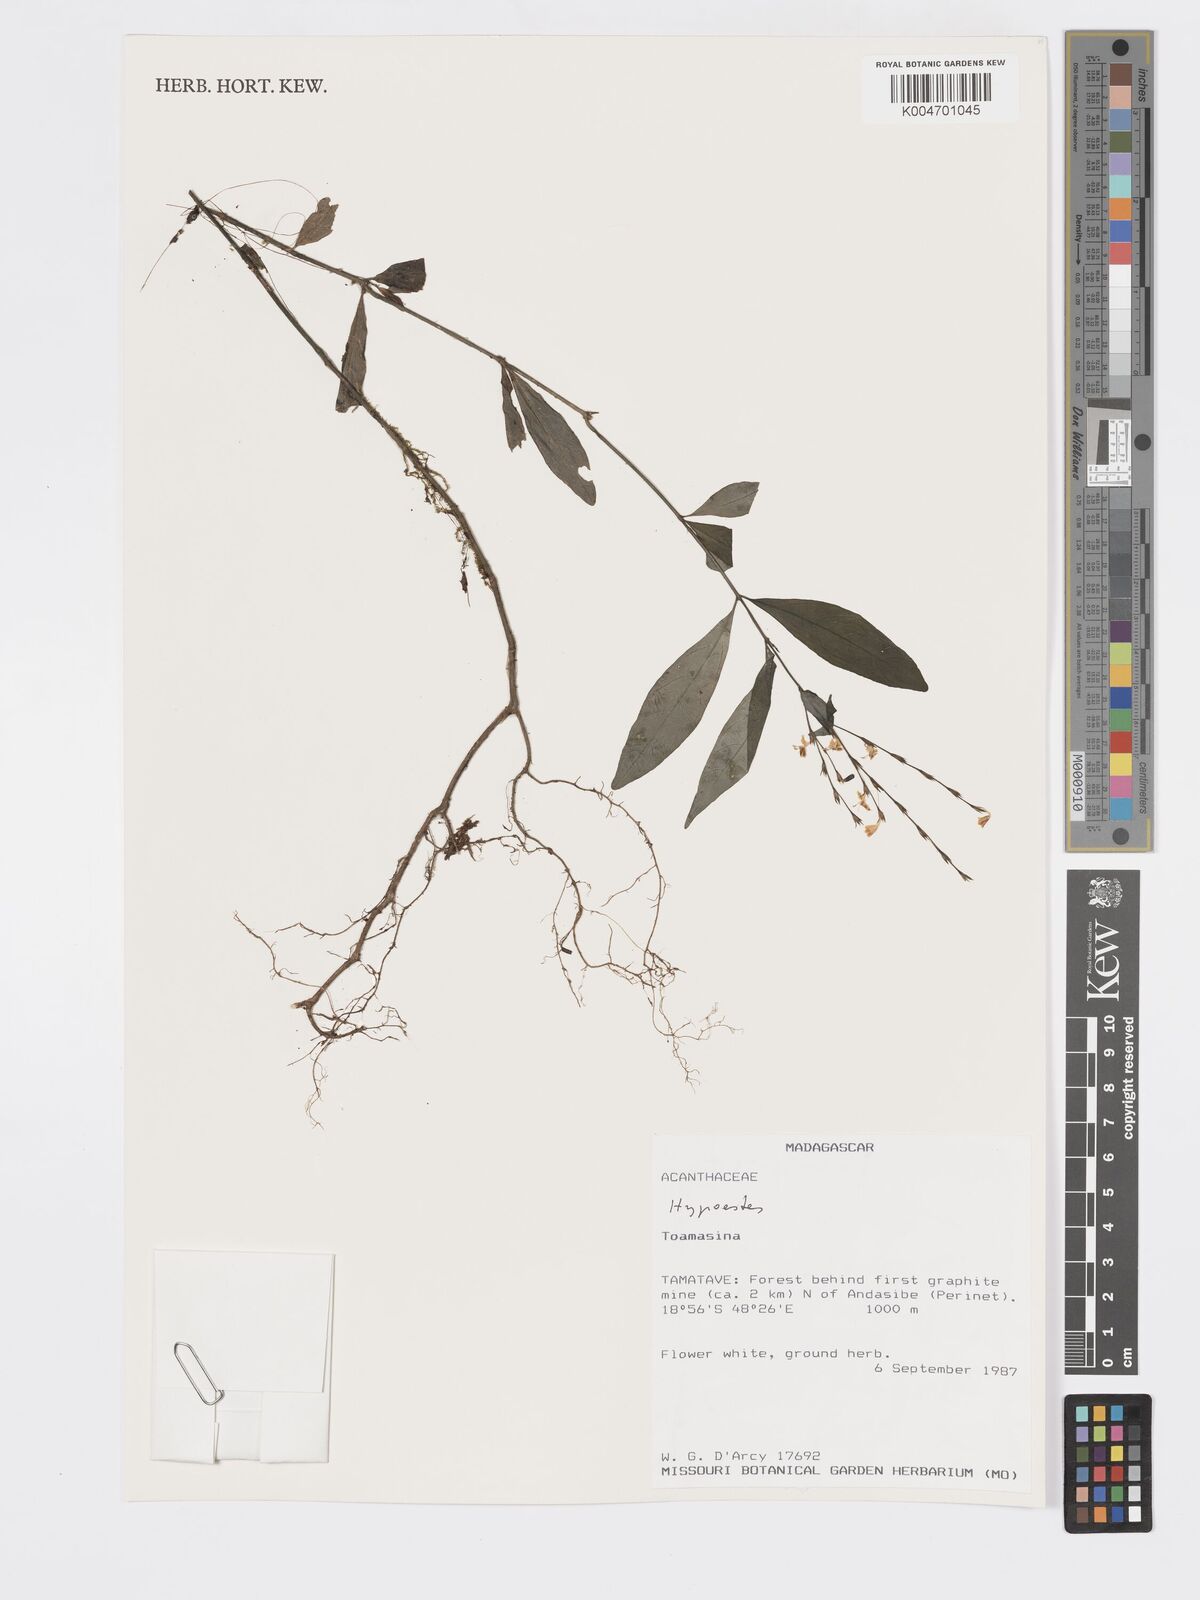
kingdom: Plantae
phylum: Tracheophyta
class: Magnoliopsida
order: Lamiales
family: Acanthaceae
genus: Hypoestes
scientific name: Hypoestes
